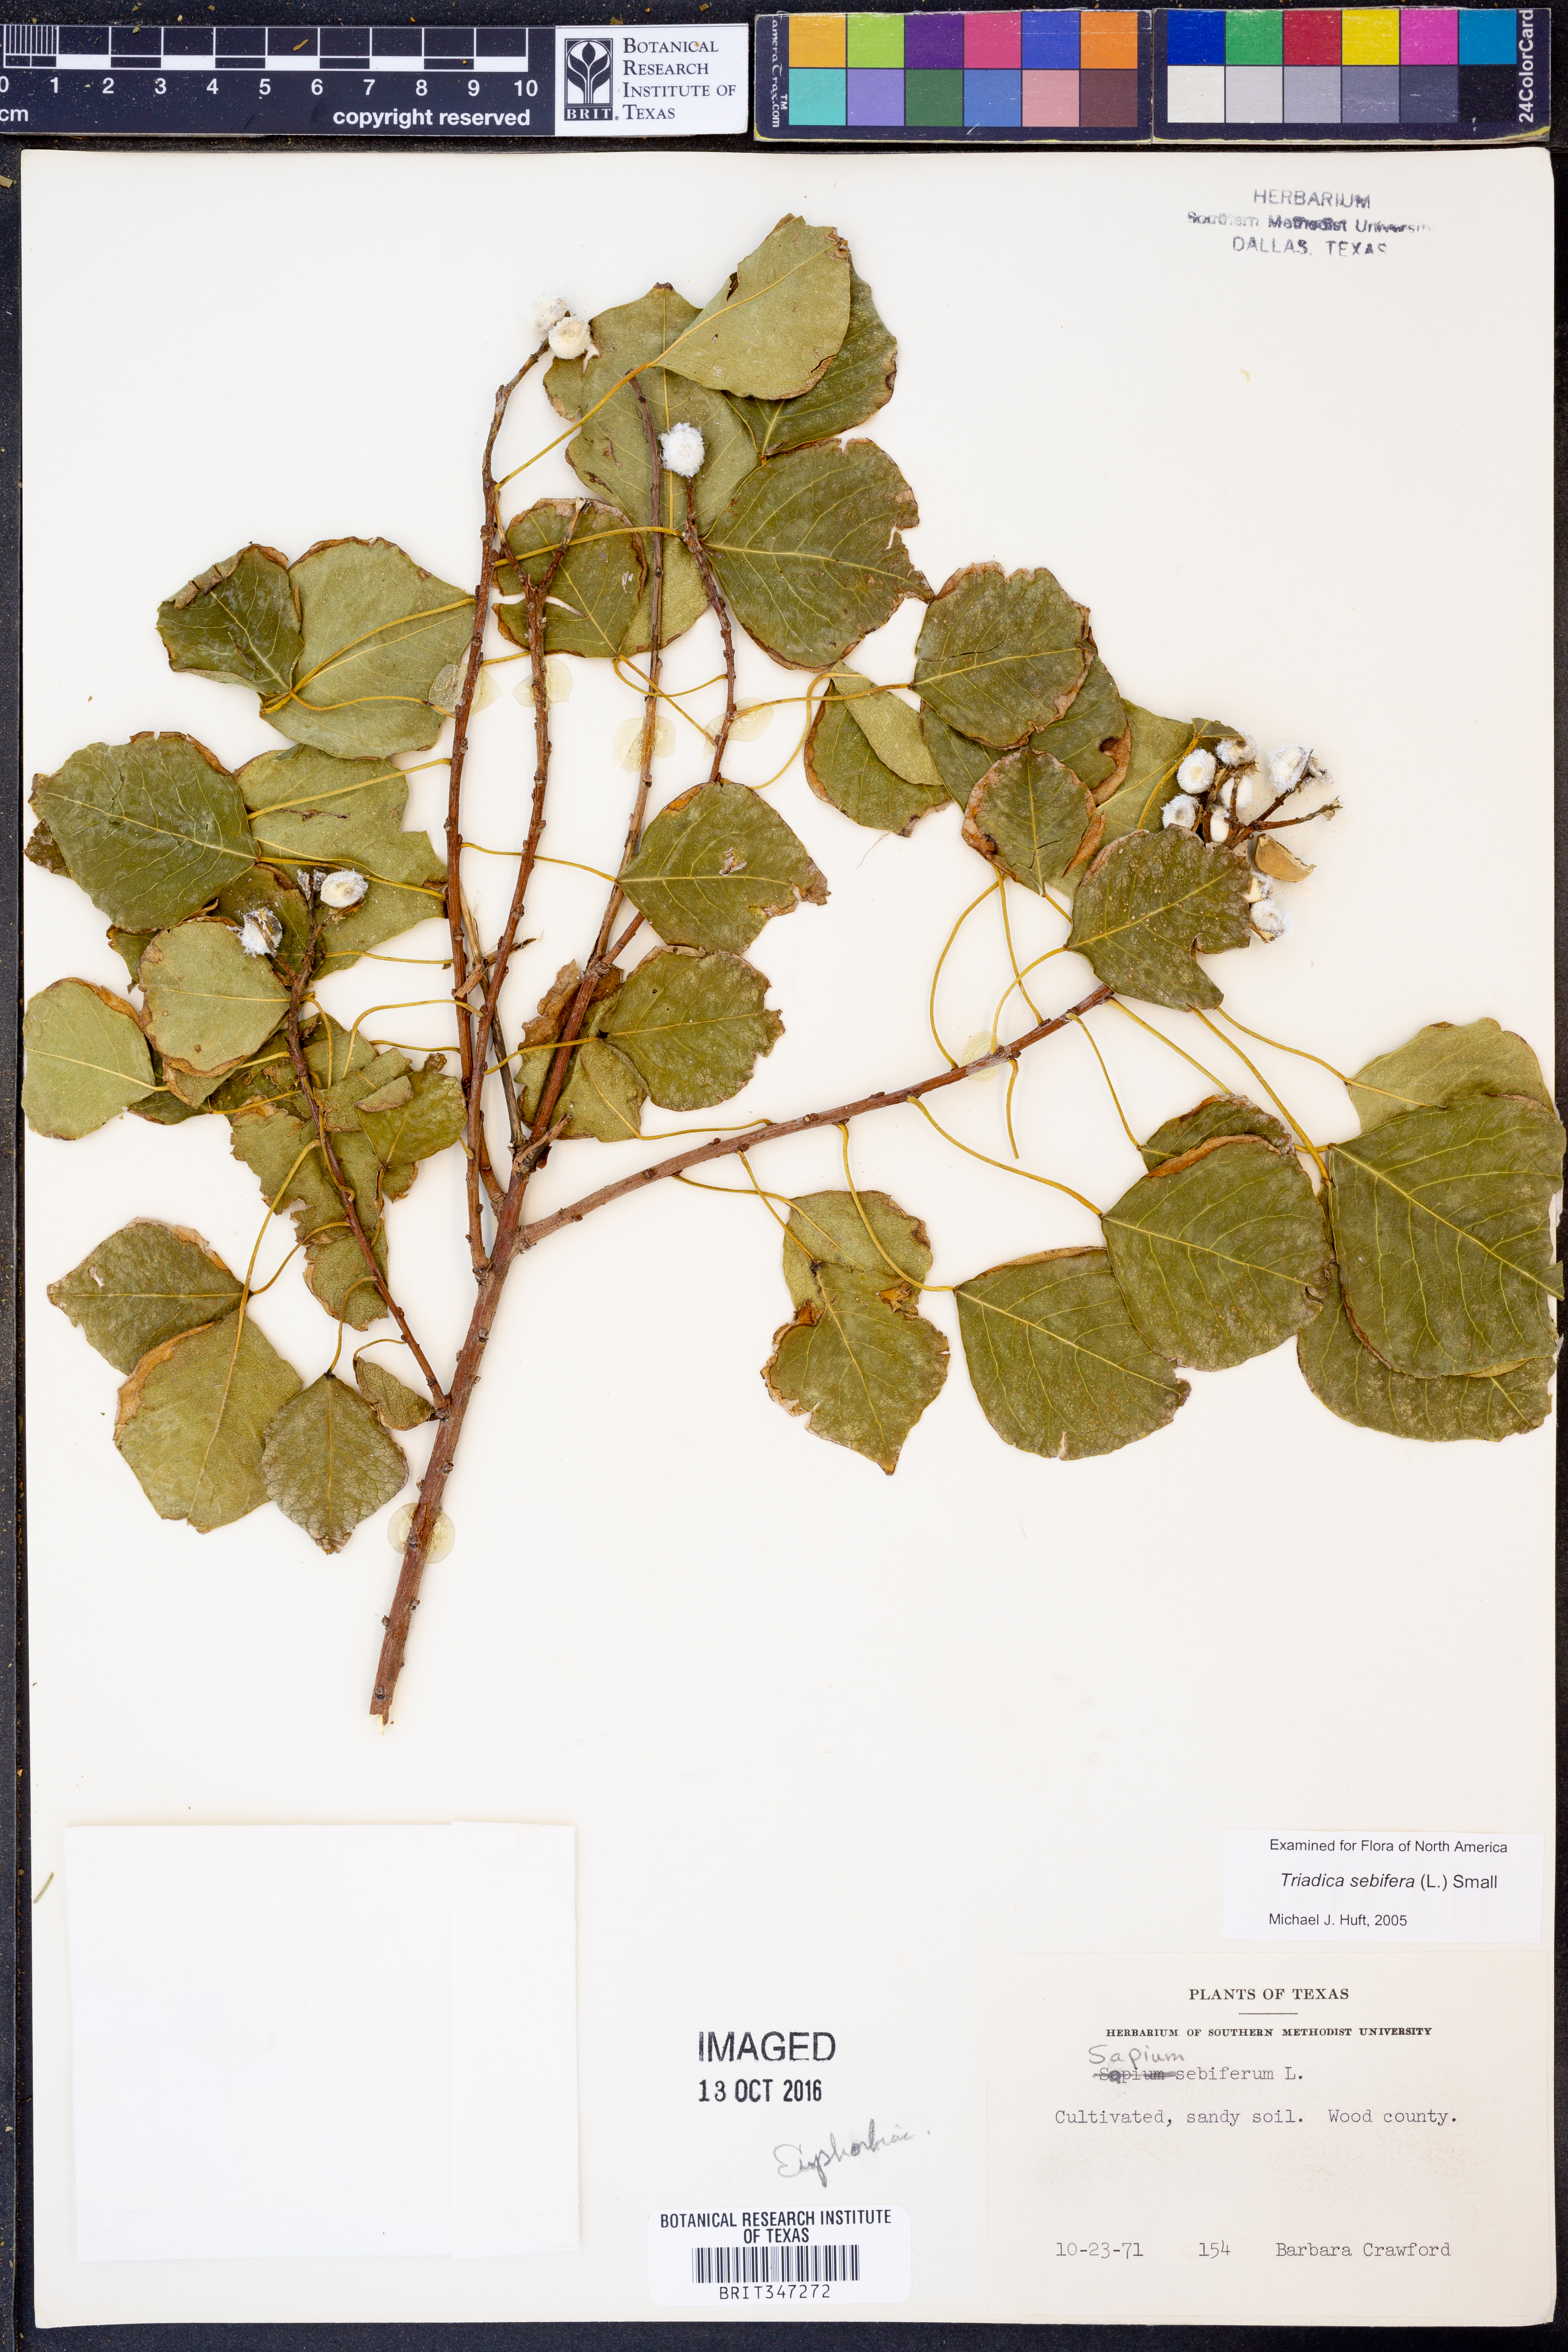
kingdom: Plantae
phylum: Tracheophyta
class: Magnoliopsida
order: Malpighiales
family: Euphorbiaceae
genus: Triadica
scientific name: Triadica sebifera
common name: Chinese tallow
